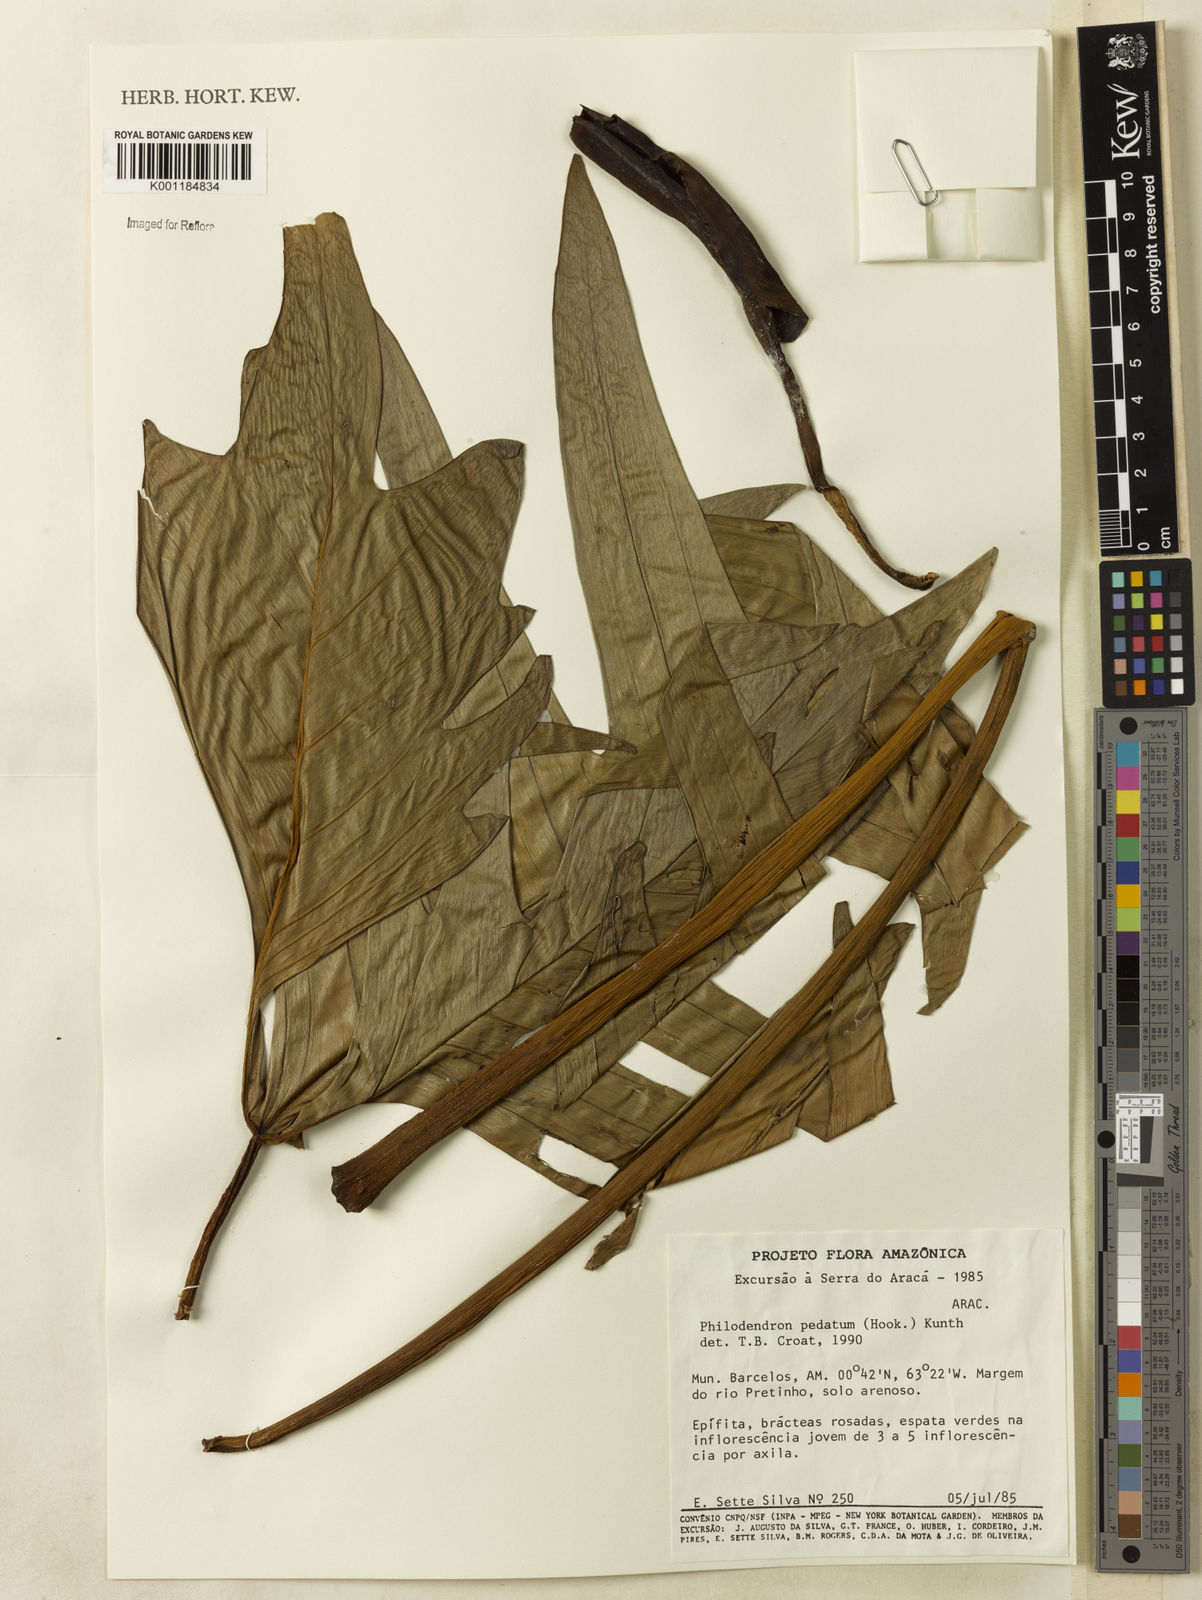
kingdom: Plantae
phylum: Tracheophyta
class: Liliopsida
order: Alismatales
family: Araceae
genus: Philodendron
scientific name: Philodendron pedatum
